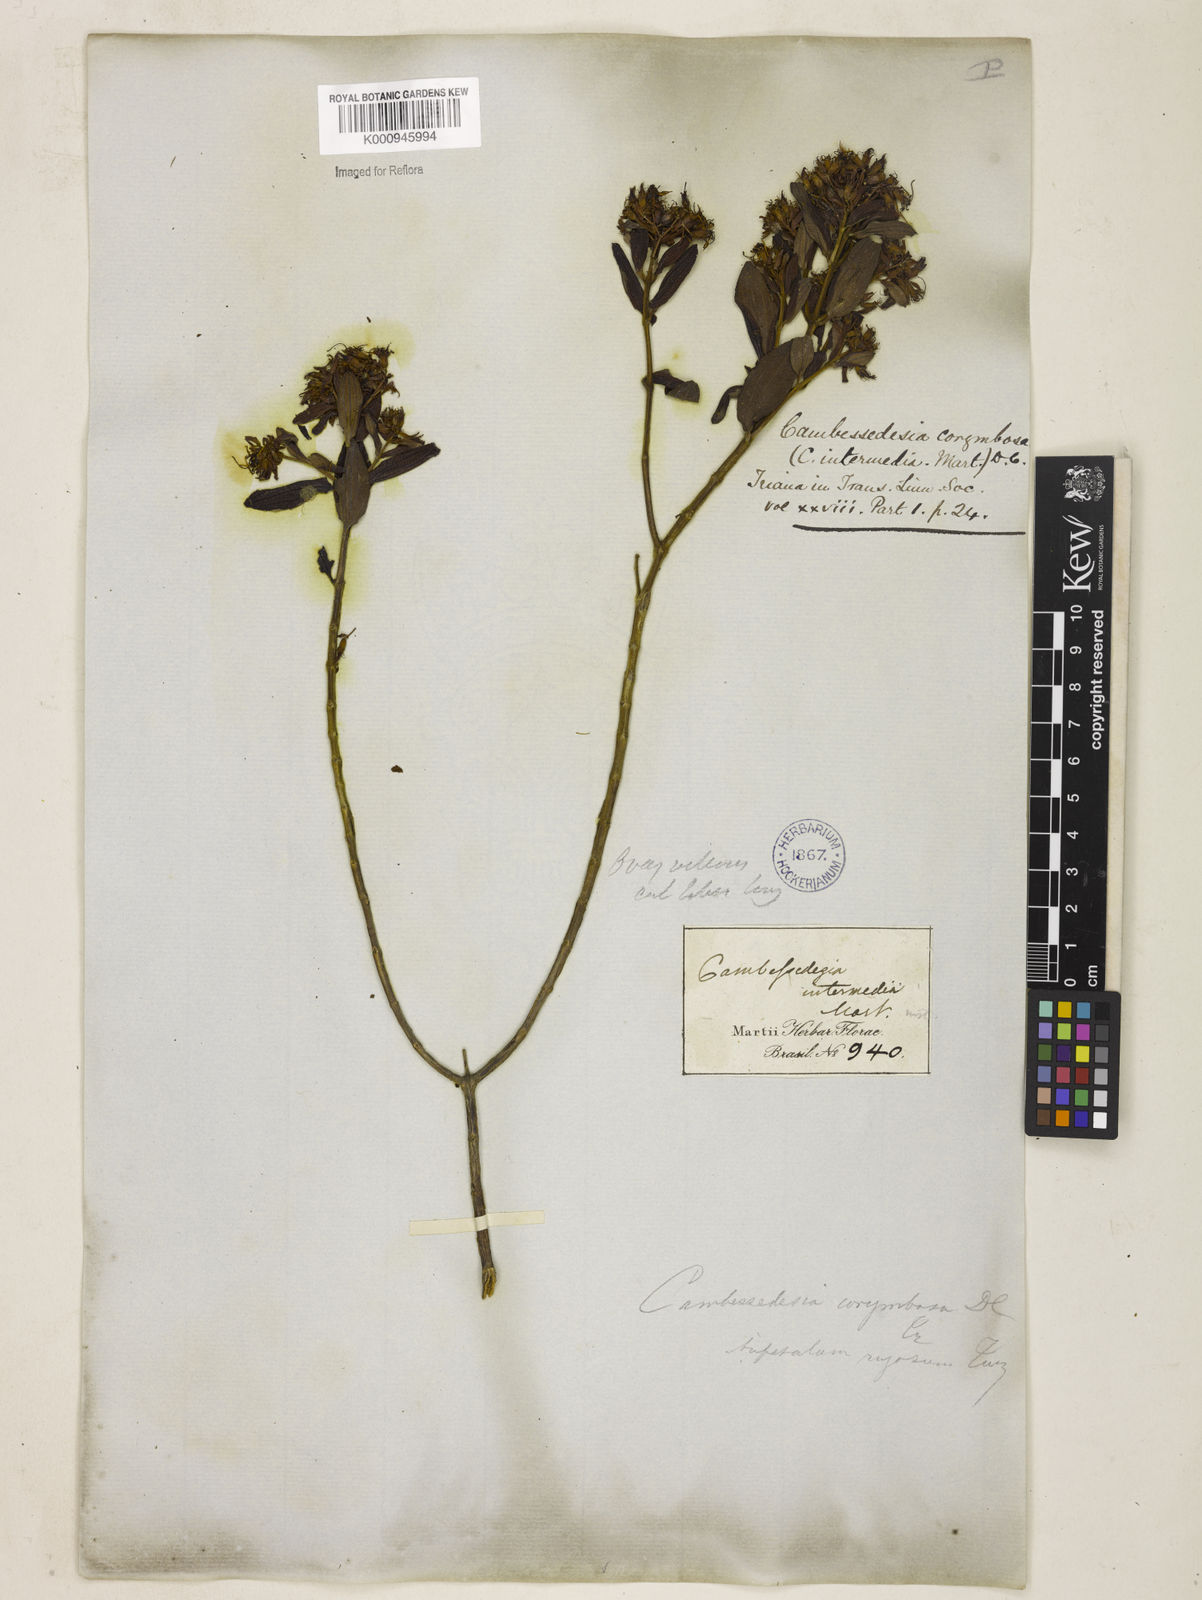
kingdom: Plantae
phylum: Tracheophyta
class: Magnoliopsida
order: Myrtales
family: Melastomataceae
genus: Cambessedesia
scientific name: Cambessedesia corymbosa
